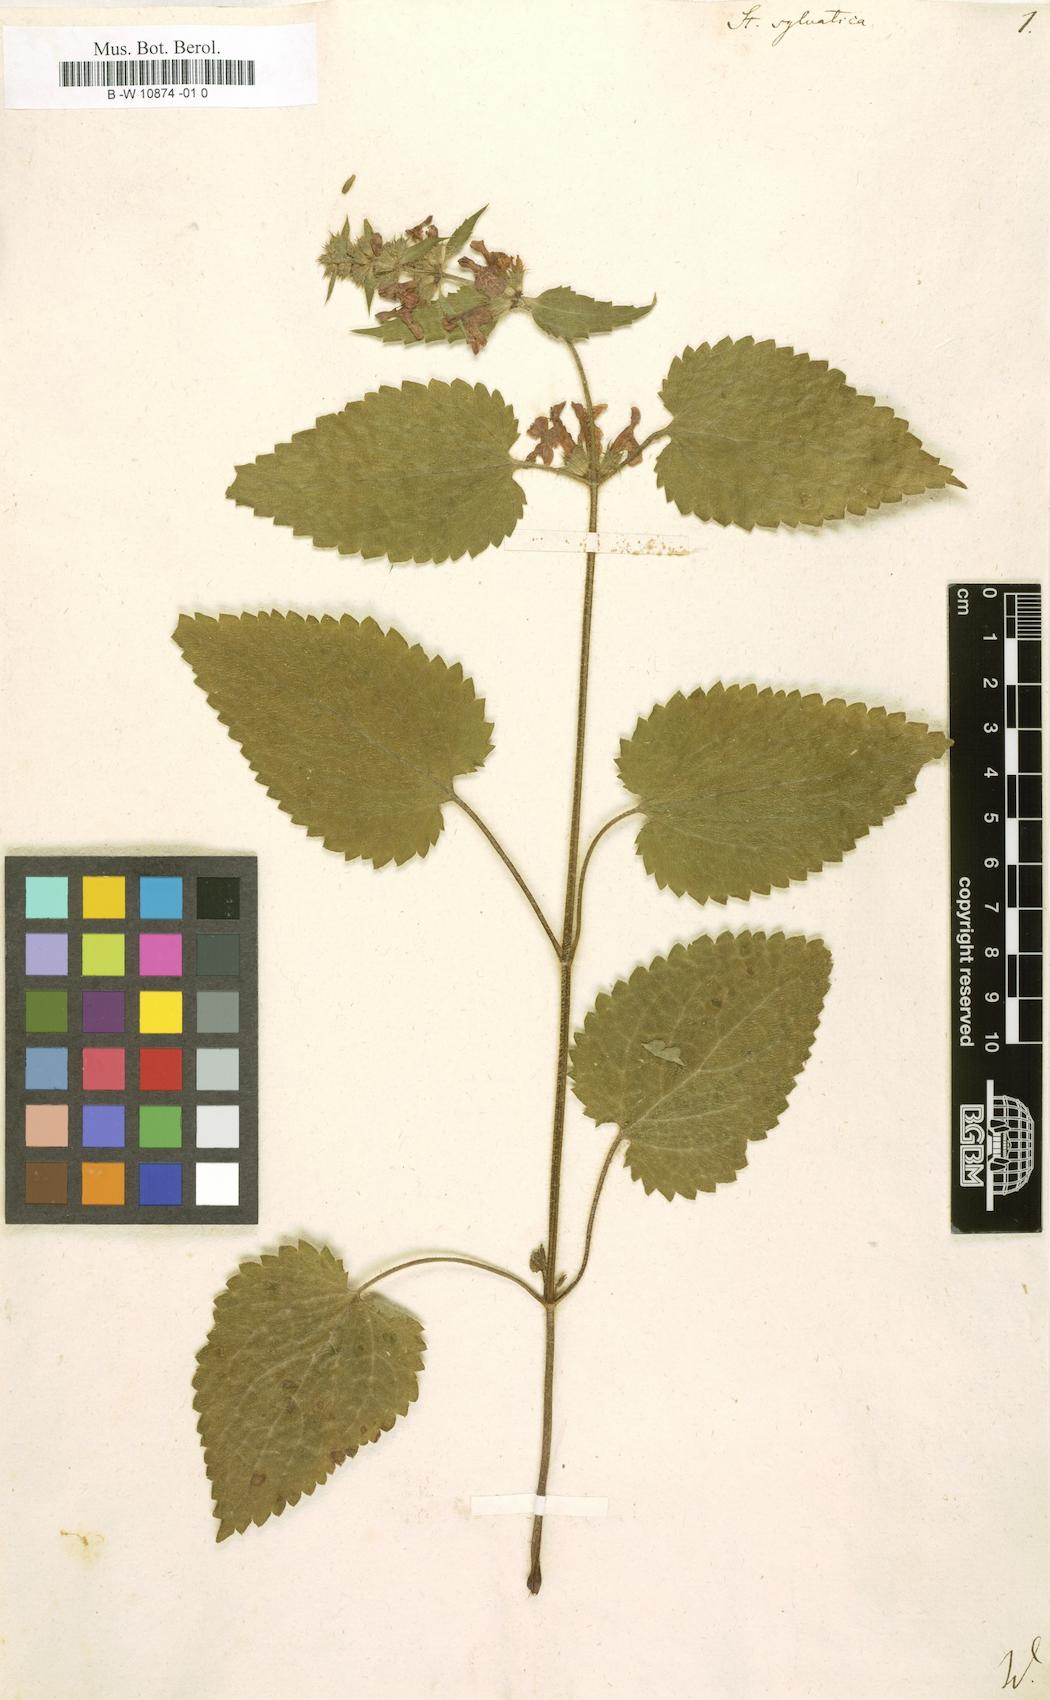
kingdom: Plantae
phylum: Tracheophyta
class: Magnoliopsida
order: Lamiales
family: Lamiaceae
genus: Stachys
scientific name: Stachys sylvatica
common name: Hedge woundwort
